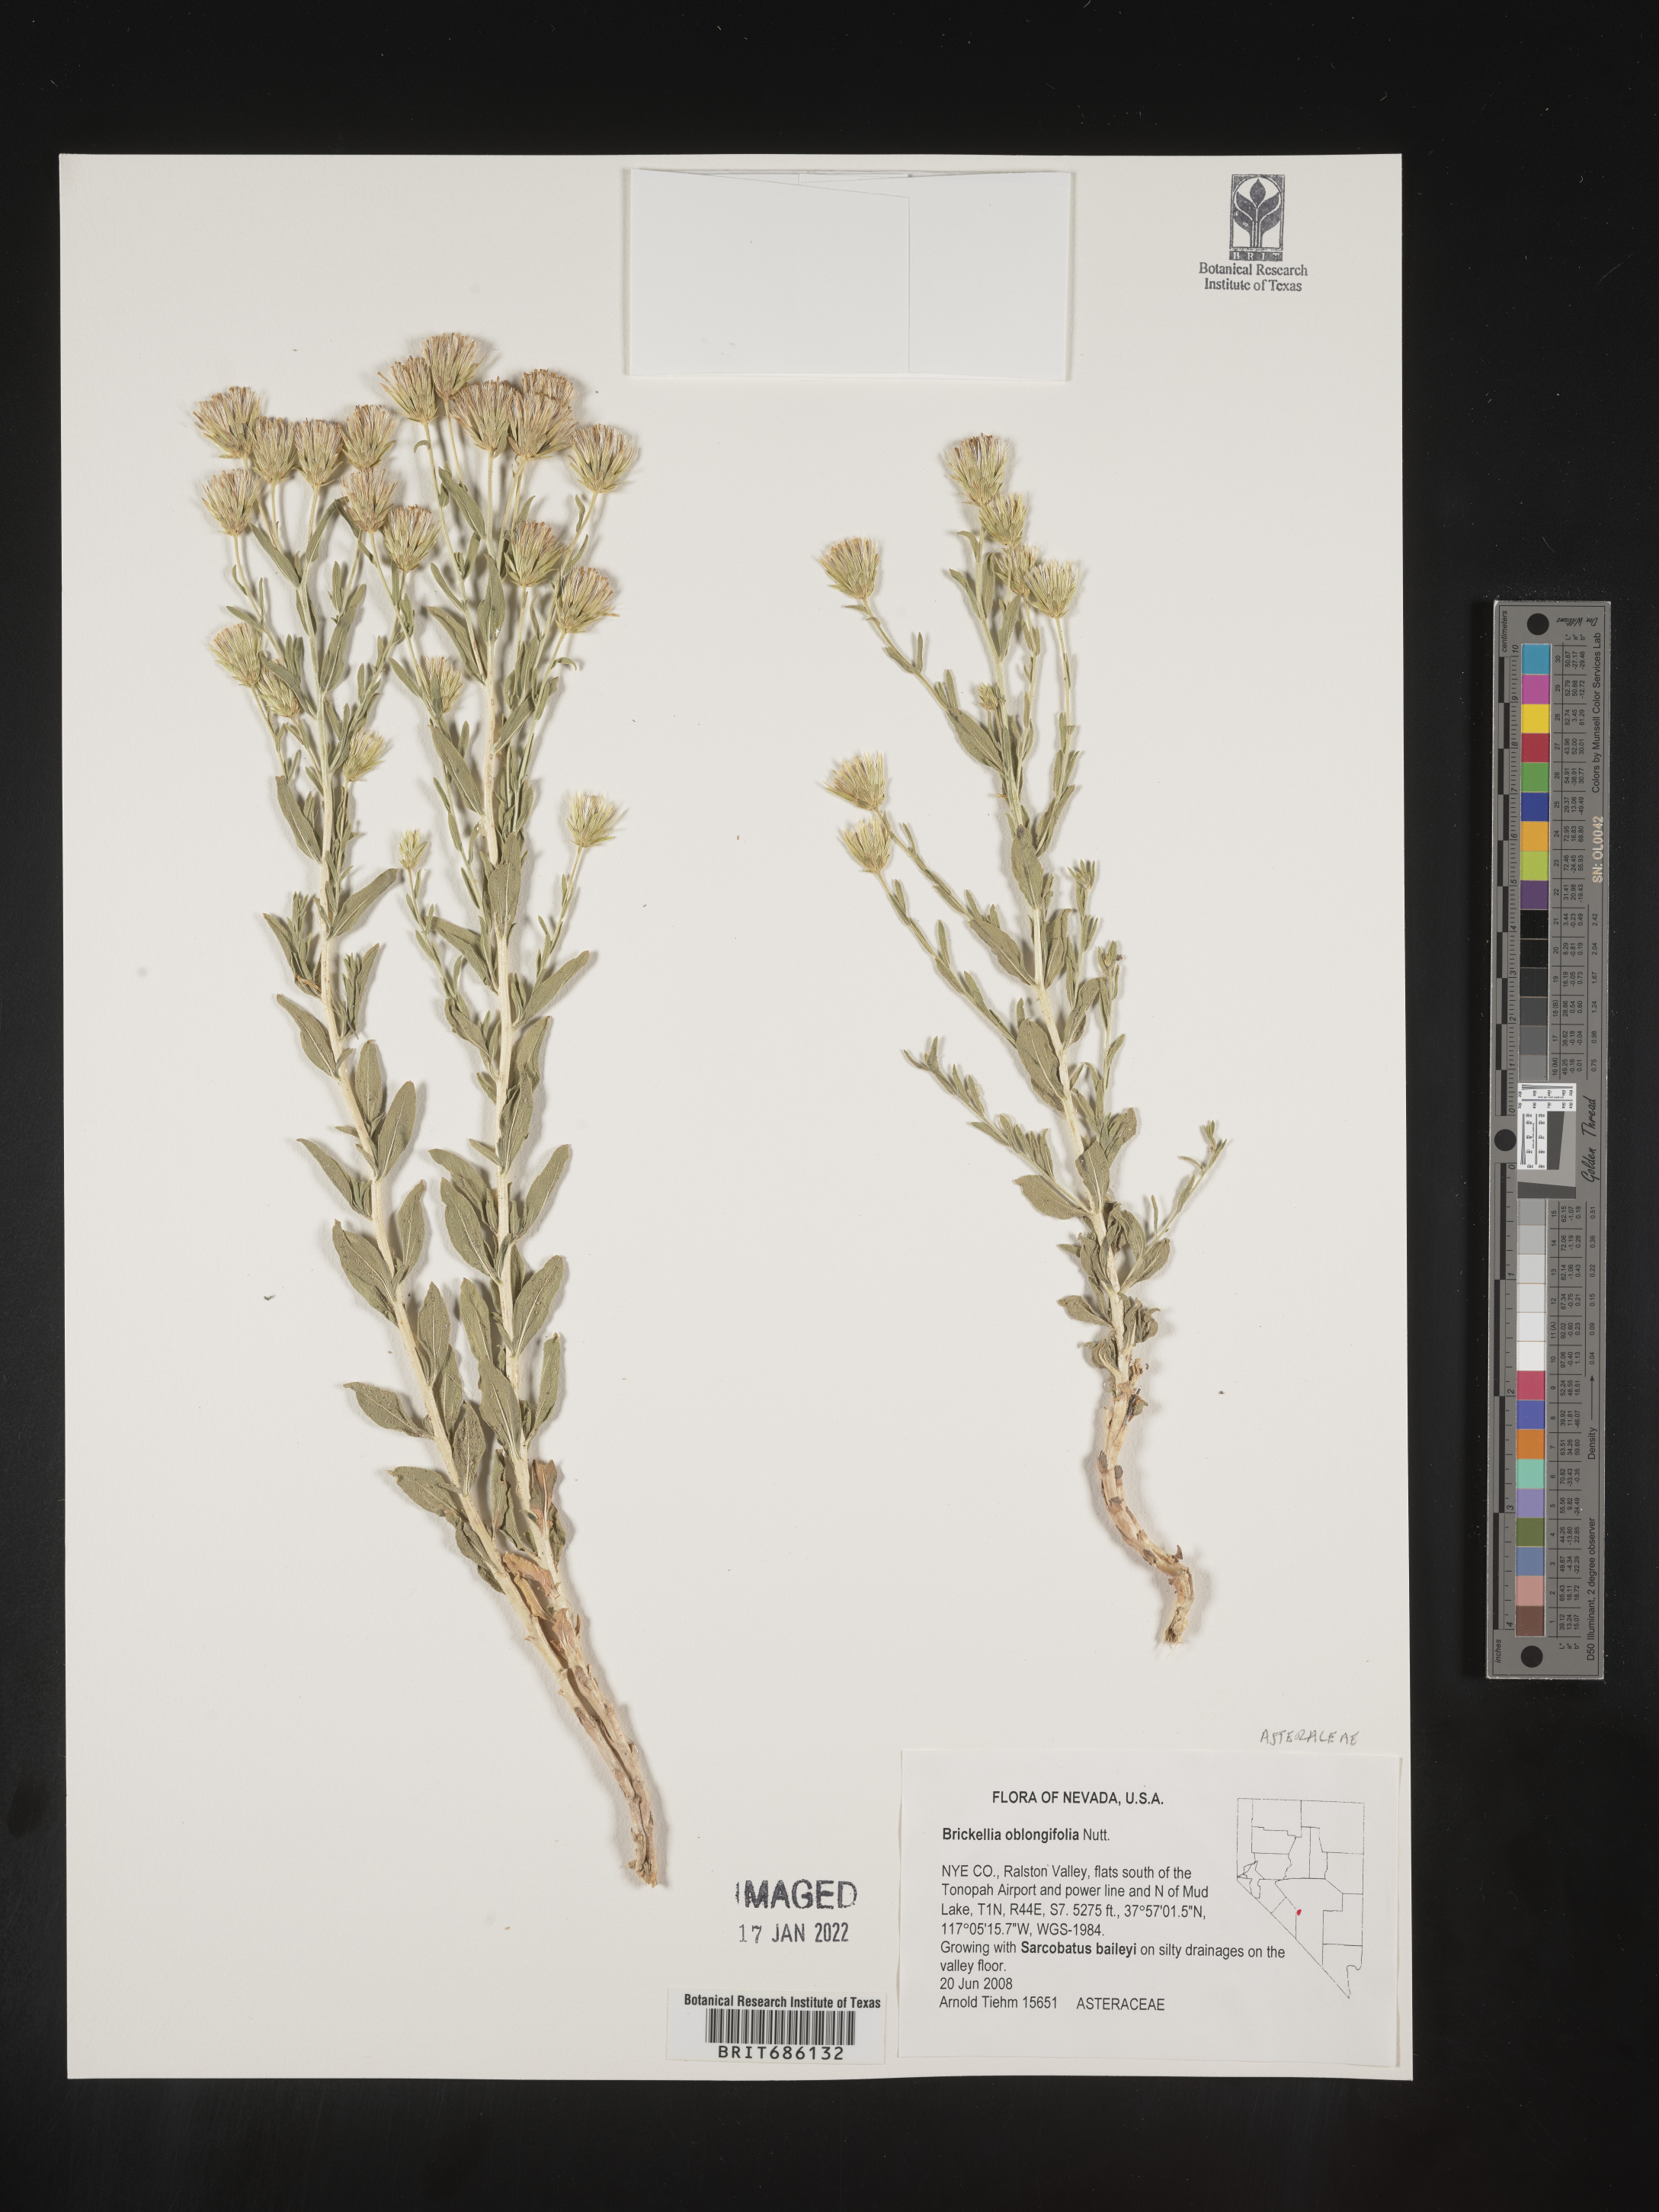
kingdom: Plantae
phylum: Tracheophyta
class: Magnoliopsida
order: Asterales
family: Asteraceae
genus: Brickellia
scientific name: Brickellia oblongifolia
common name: Mojave brickellbush
